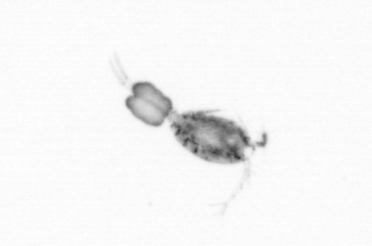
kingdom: Animalia
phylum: Arthropoda
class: Copepoda
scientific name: Copepoda
